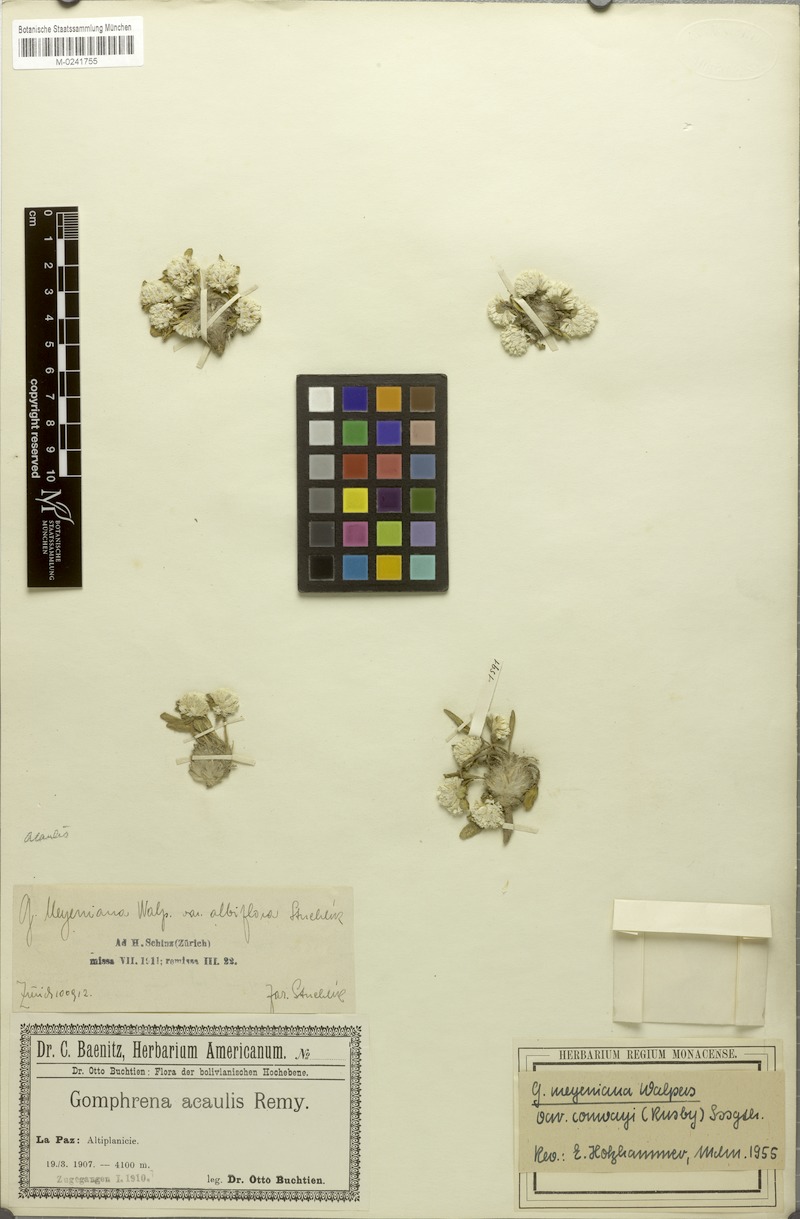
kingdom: Plantae
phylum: Tracheophyta
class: Magnoliopsida
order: Caryophyllales
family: Amaranthaceae
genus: Gomphrena
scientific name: Gomphrena meyeniana
